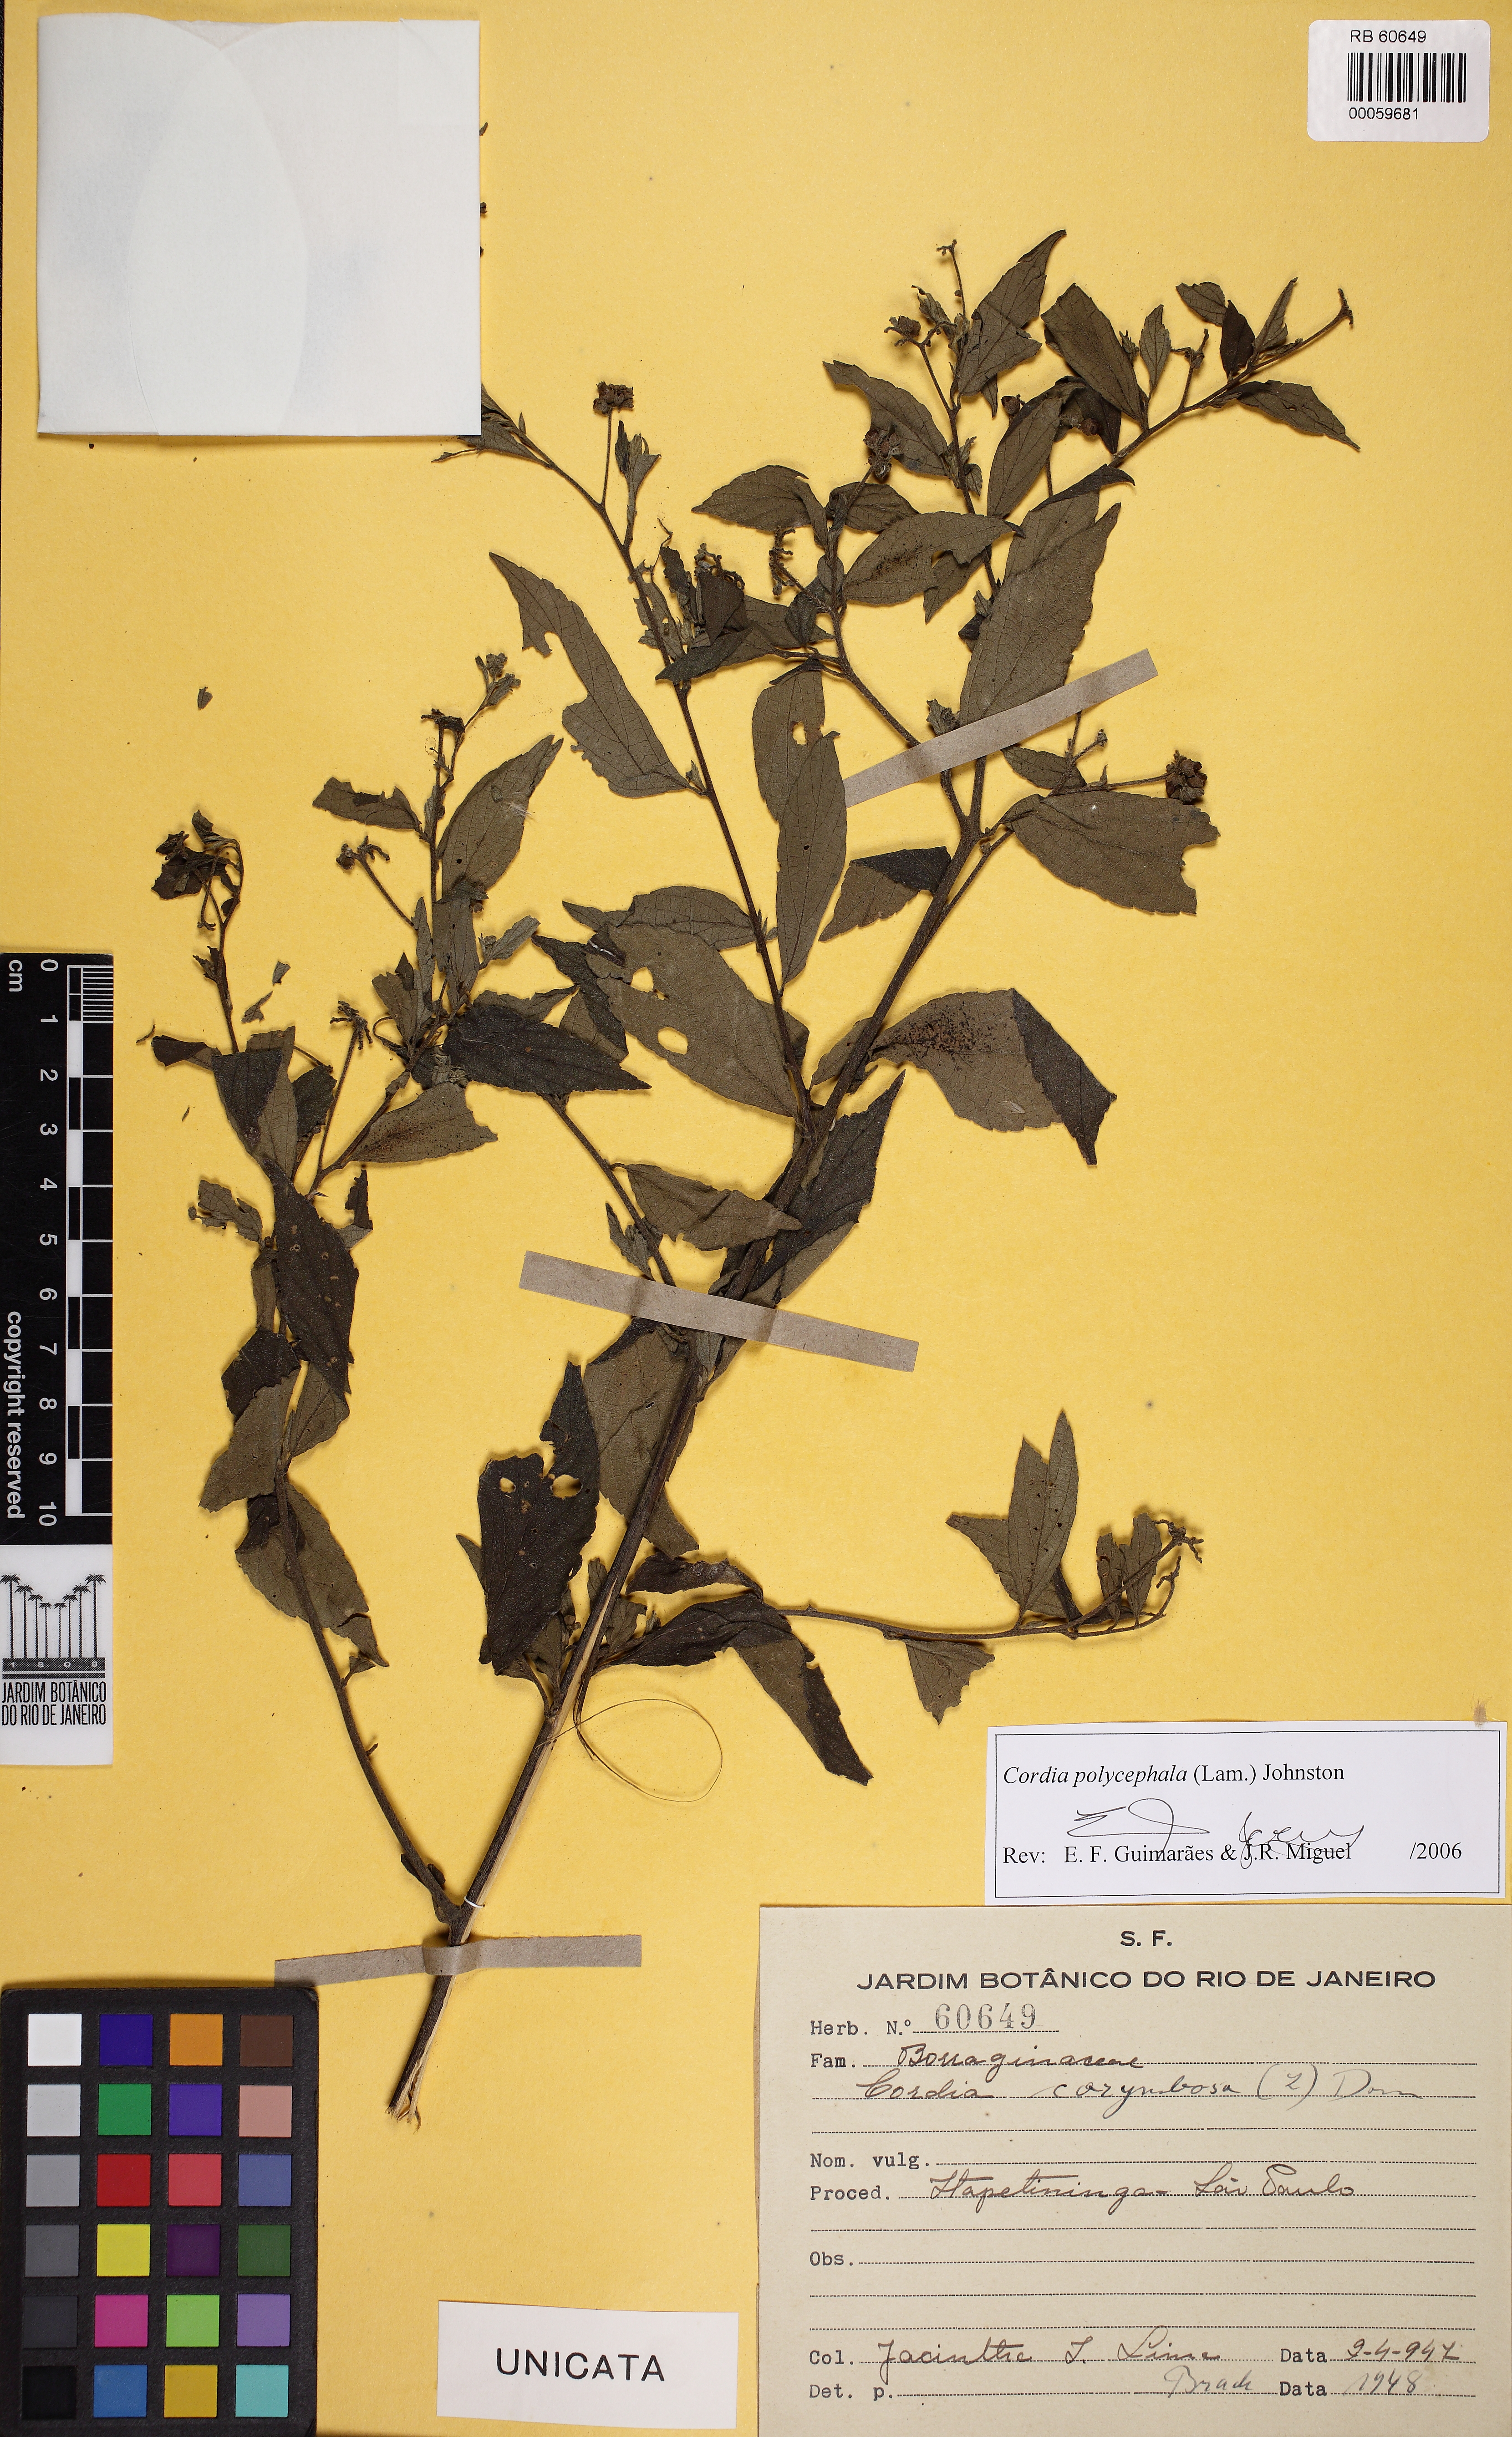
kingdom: Plantae
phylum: Tracheophyta
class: Magnoliopsida
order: Boraginales
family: Cordiaceae
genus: Varronia
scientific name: Varronia polycephala
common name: Black-sage
